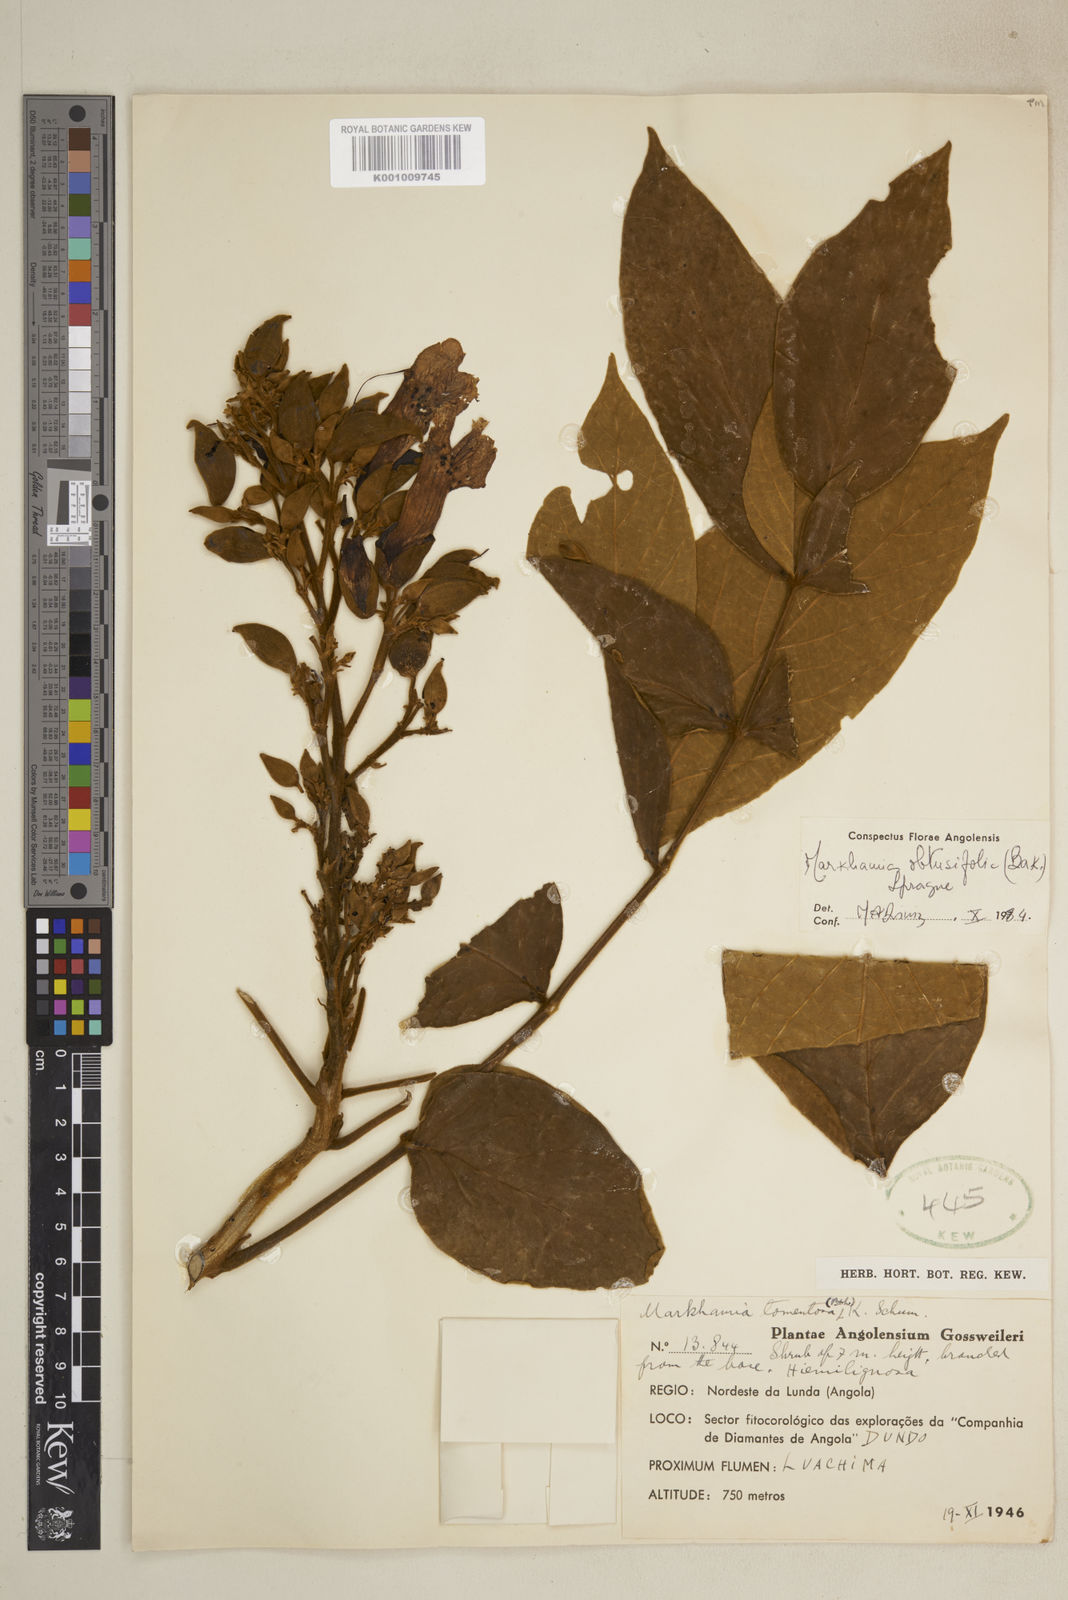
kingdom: Plantae
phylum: Tracheophyta
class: Magnoliopsida
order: Lamiales
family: Bignoniaceae
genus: Markhamia
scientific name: Markhamia obtusifolia
